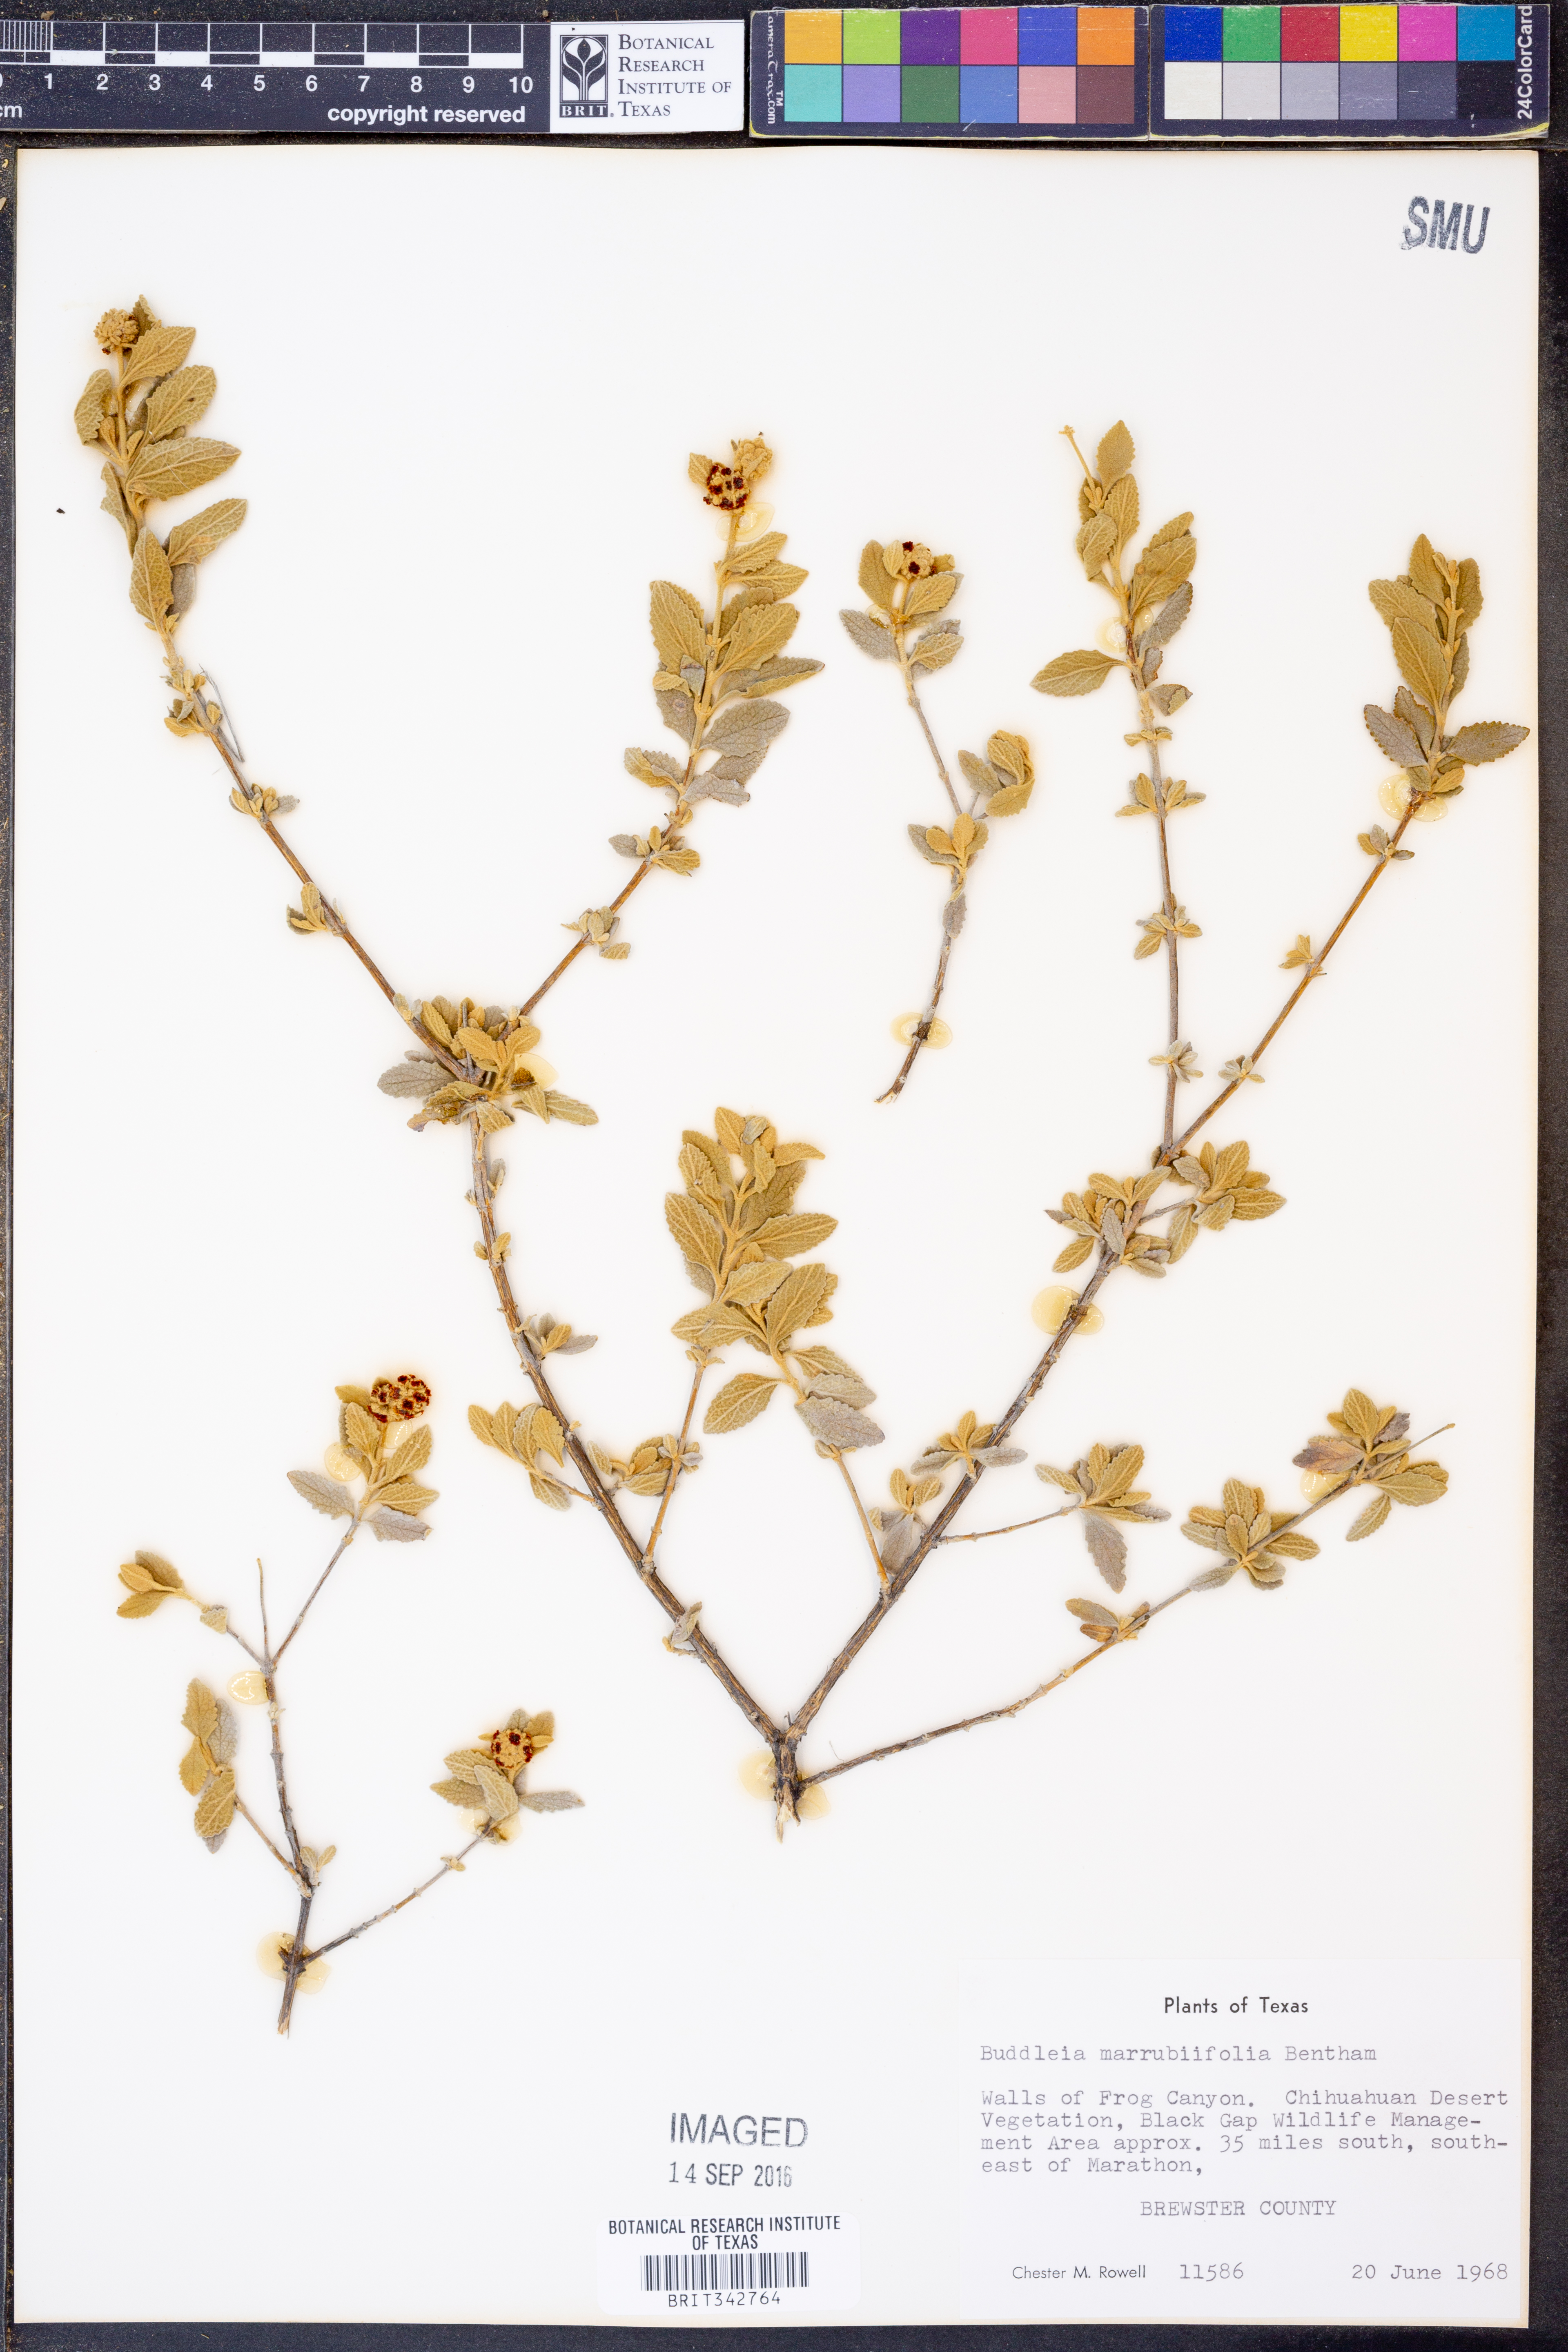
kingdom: Plantae
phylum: Tracheophyta
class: Magnoliopsida
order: Lamiales
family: Scrophulariaceae
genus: Buddleja
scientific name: Buddleja marrubiifolia
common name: Woolly butterfly-bush
